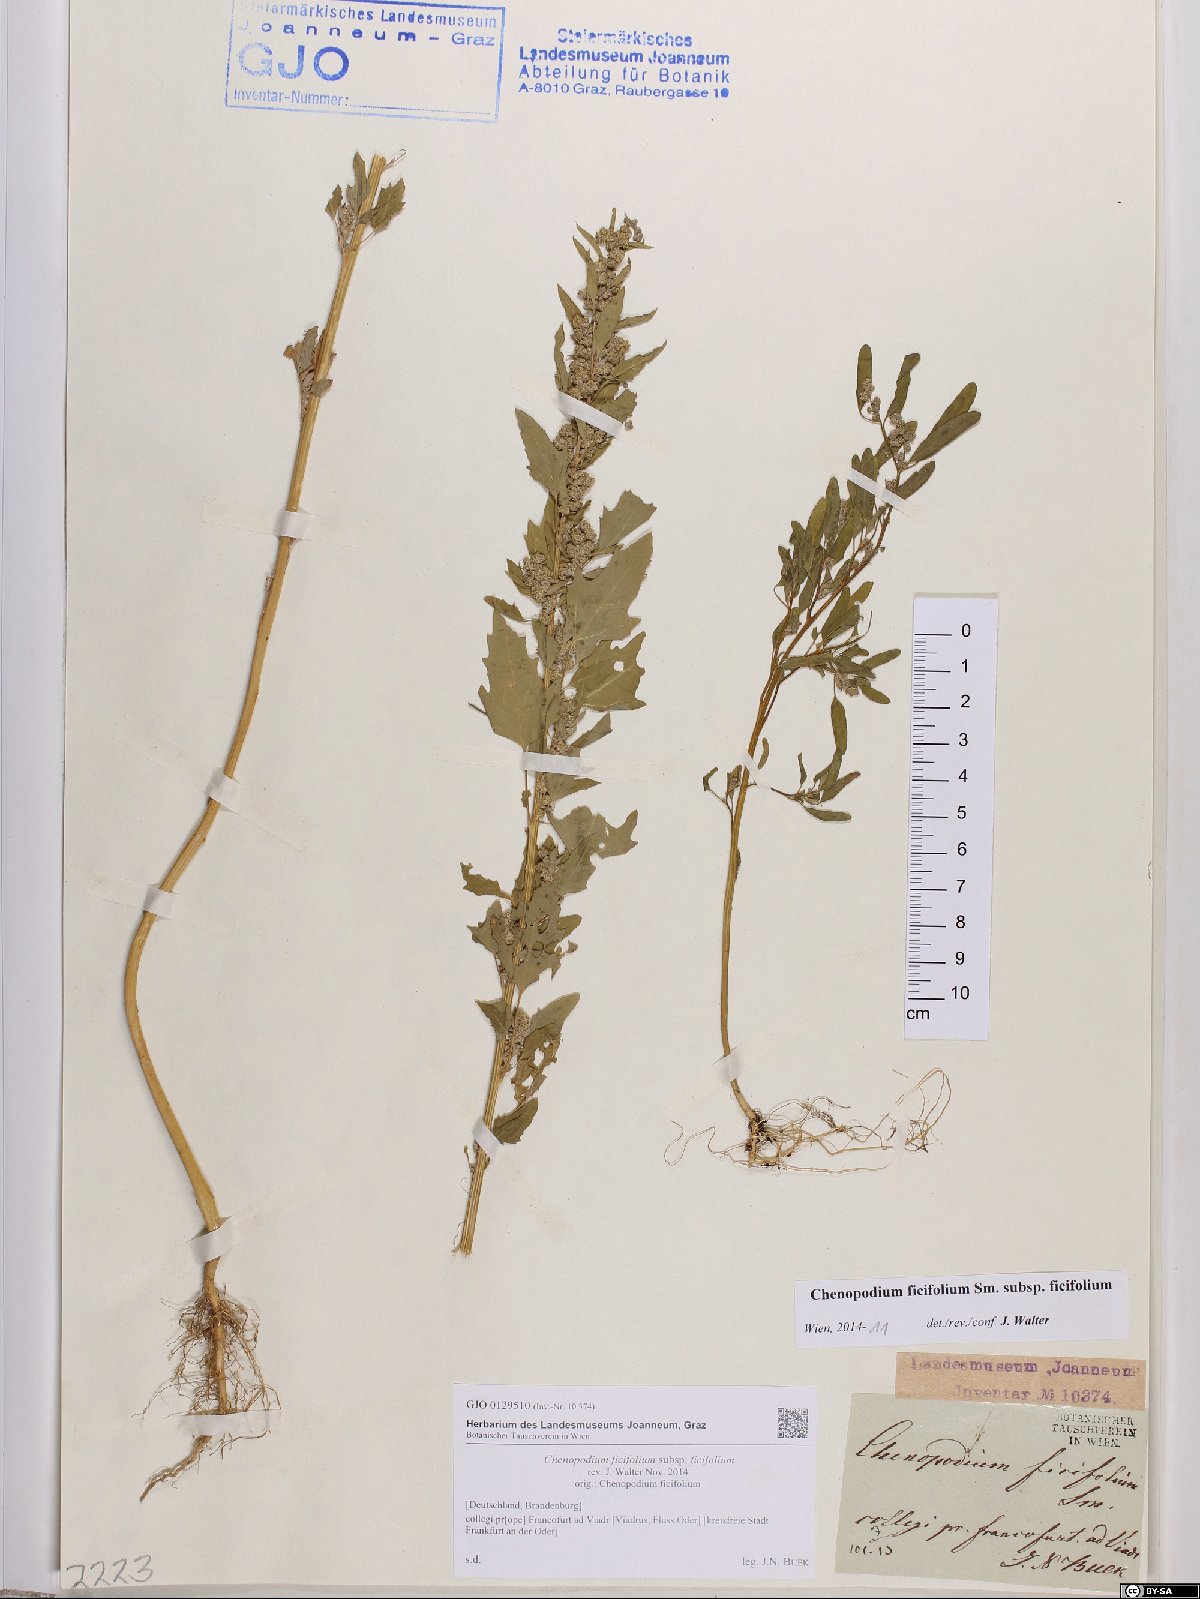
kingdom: Plantae
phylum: Tracheophyta
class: Magnoliopsida
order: Caryophyllales
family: Amaranthaceae
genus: Chenopodium
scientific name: Chenopodium ficifolium
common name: Fig-leaved goosefoot
